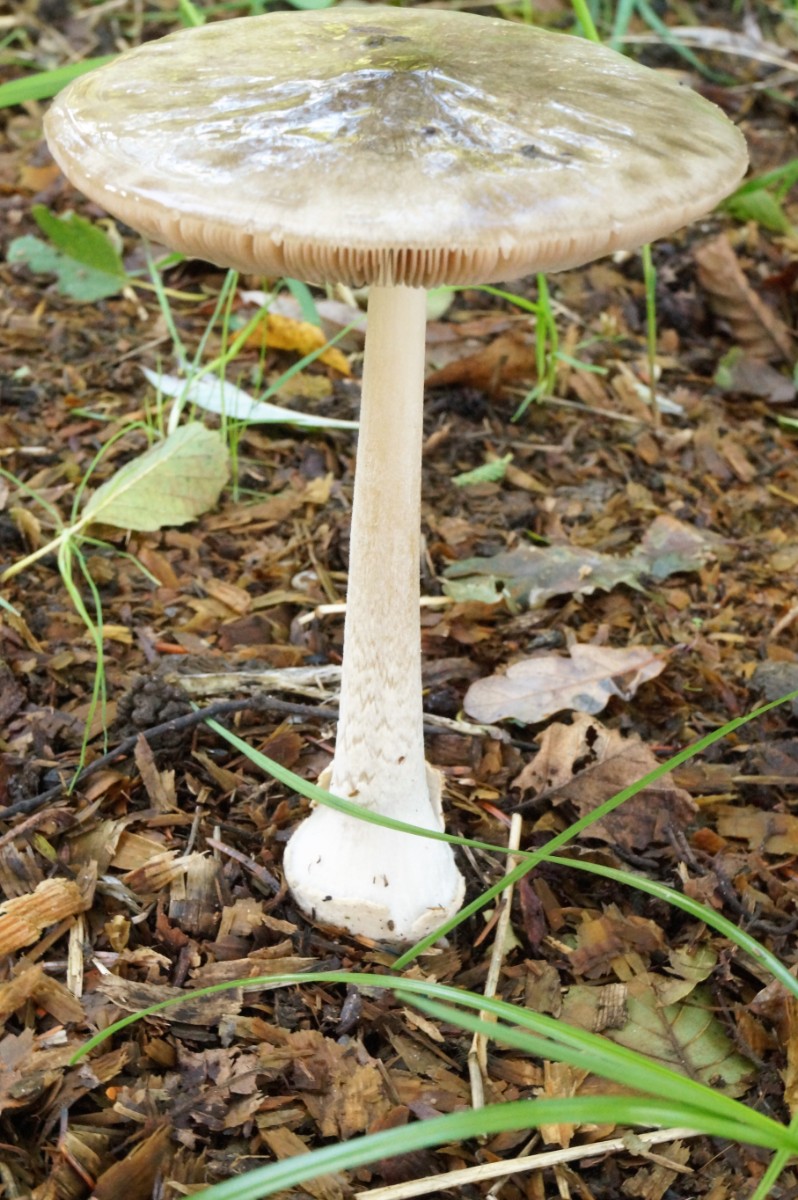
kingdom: Fungi
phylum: Basidiomycota
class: Agaricomycetes
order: Agaricales
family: Pluteaceae
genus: Volvopluteus
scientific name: Volvopluteus gloiocephalus
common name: høj posesvamp
